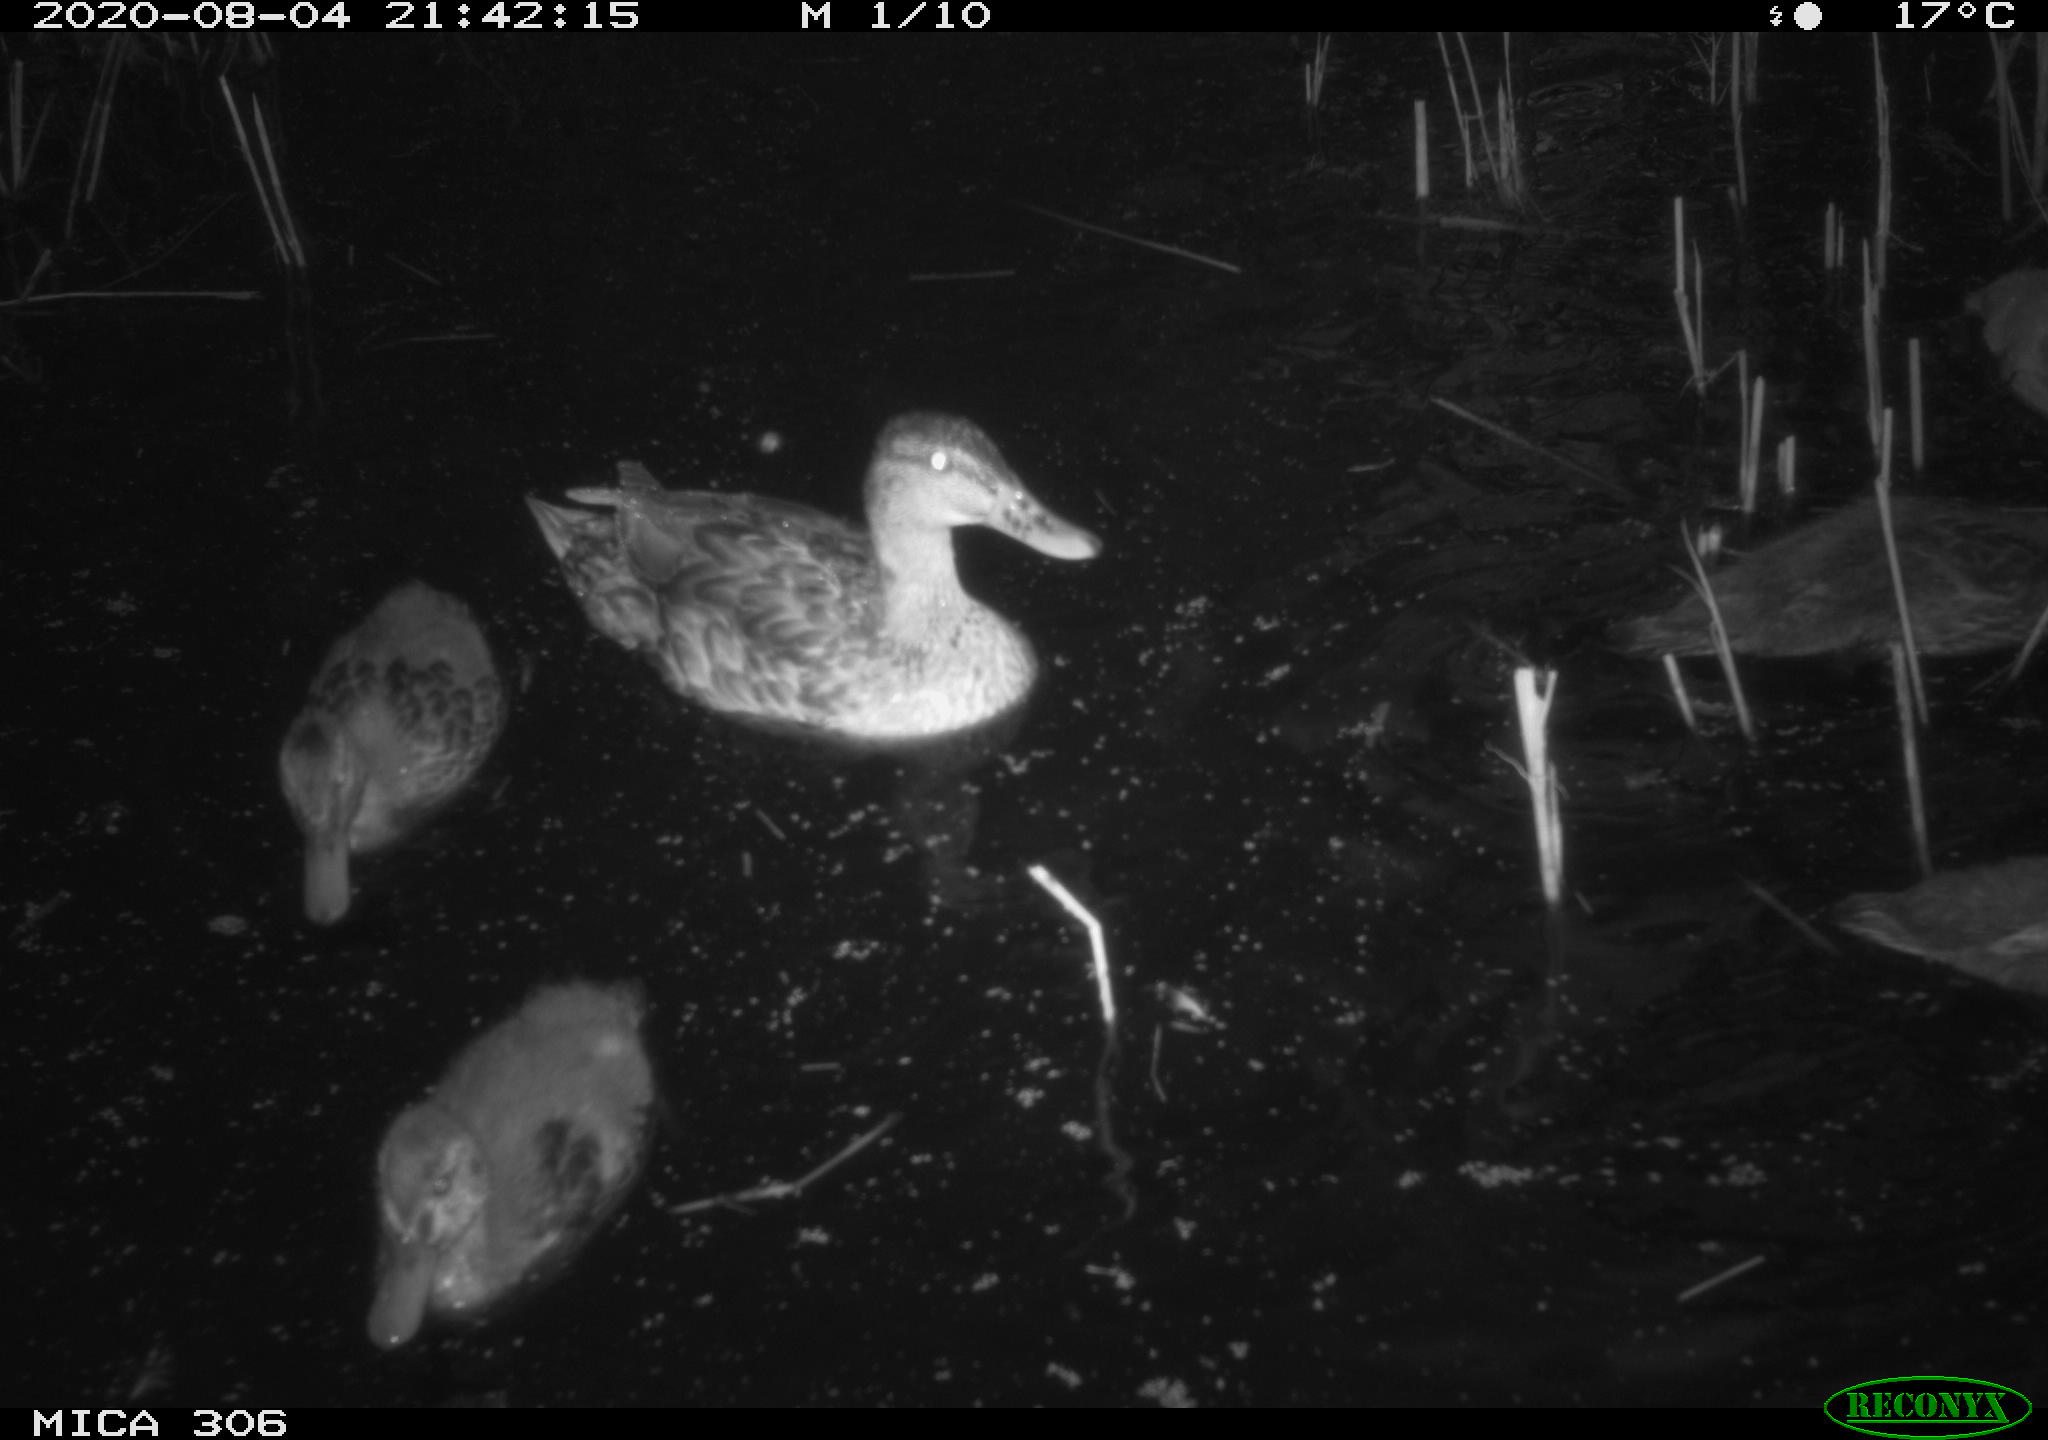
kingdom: Animalia
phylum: Chordata
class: Aves
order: Anseriformes
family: Anatidae
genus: Anas
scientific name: Anas platyrhynchos
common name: Mallard
